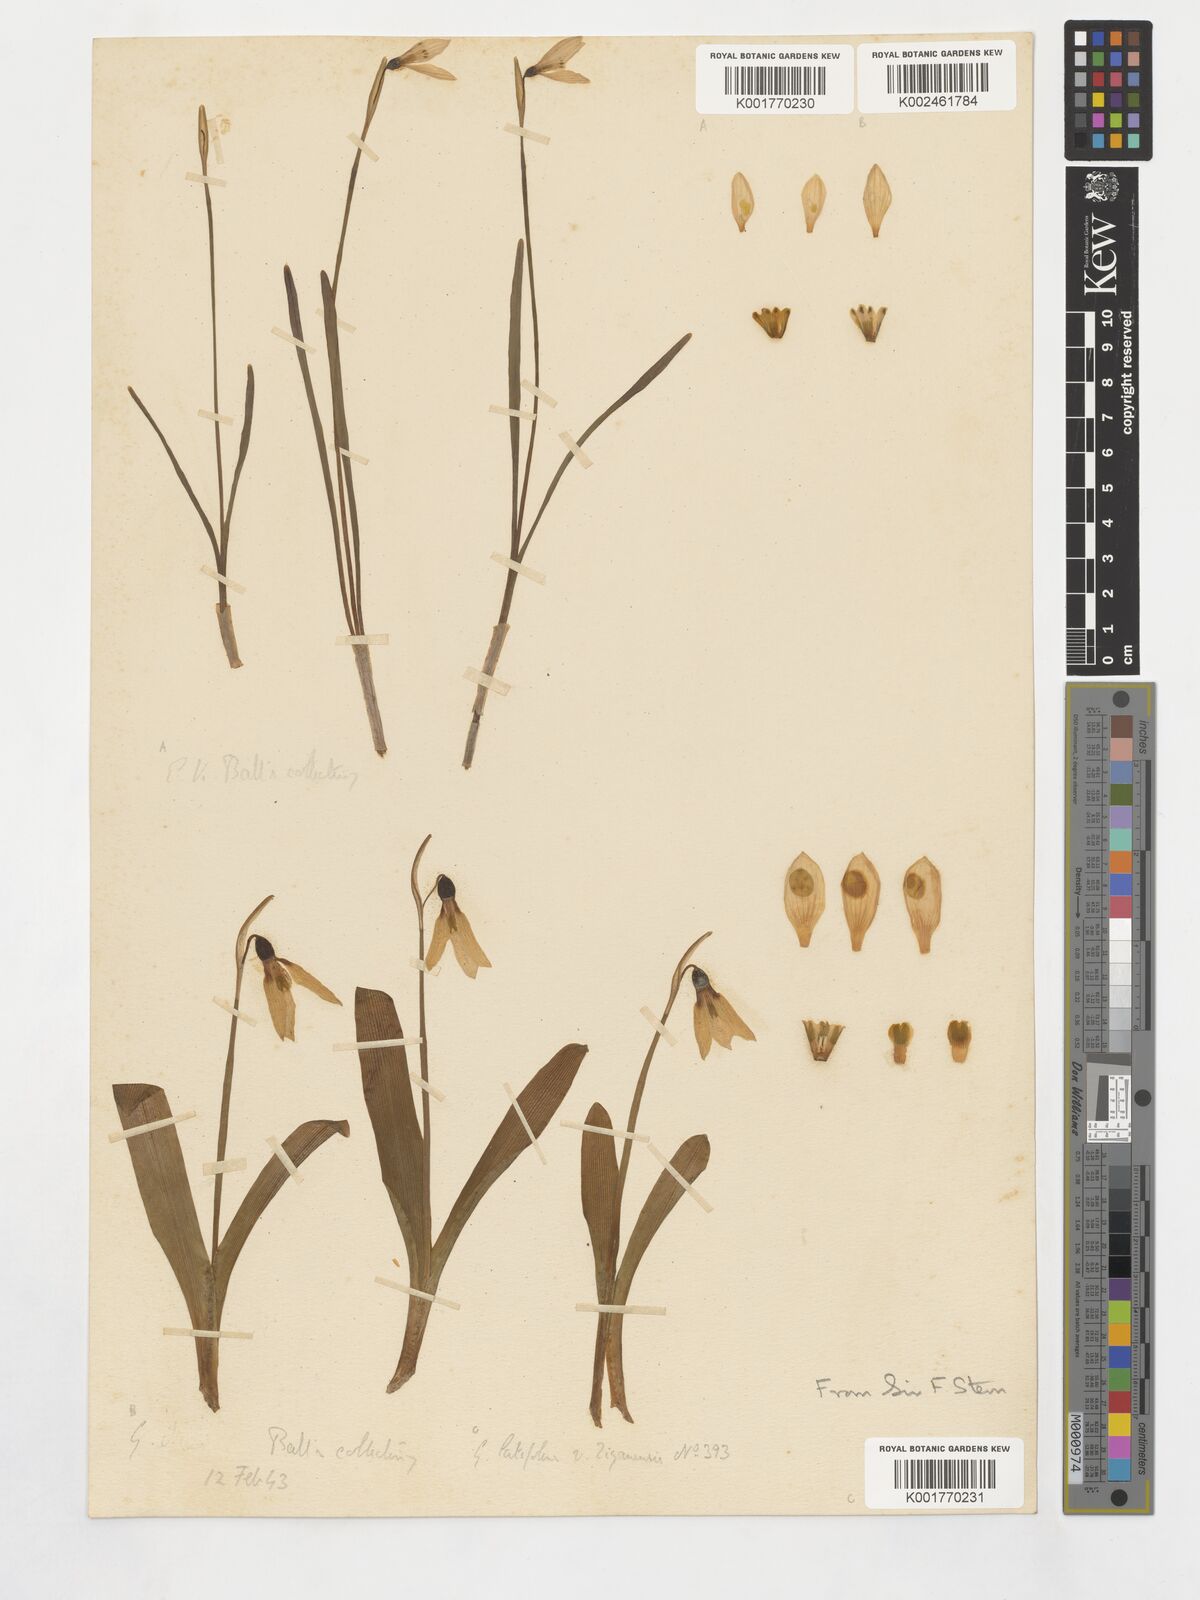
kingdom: Plantae
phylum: Tracheophyta
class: Liliopsida
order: Asparagales
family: Amaryllidaceae
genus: Galanthus
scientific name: Galanthus ikariae
